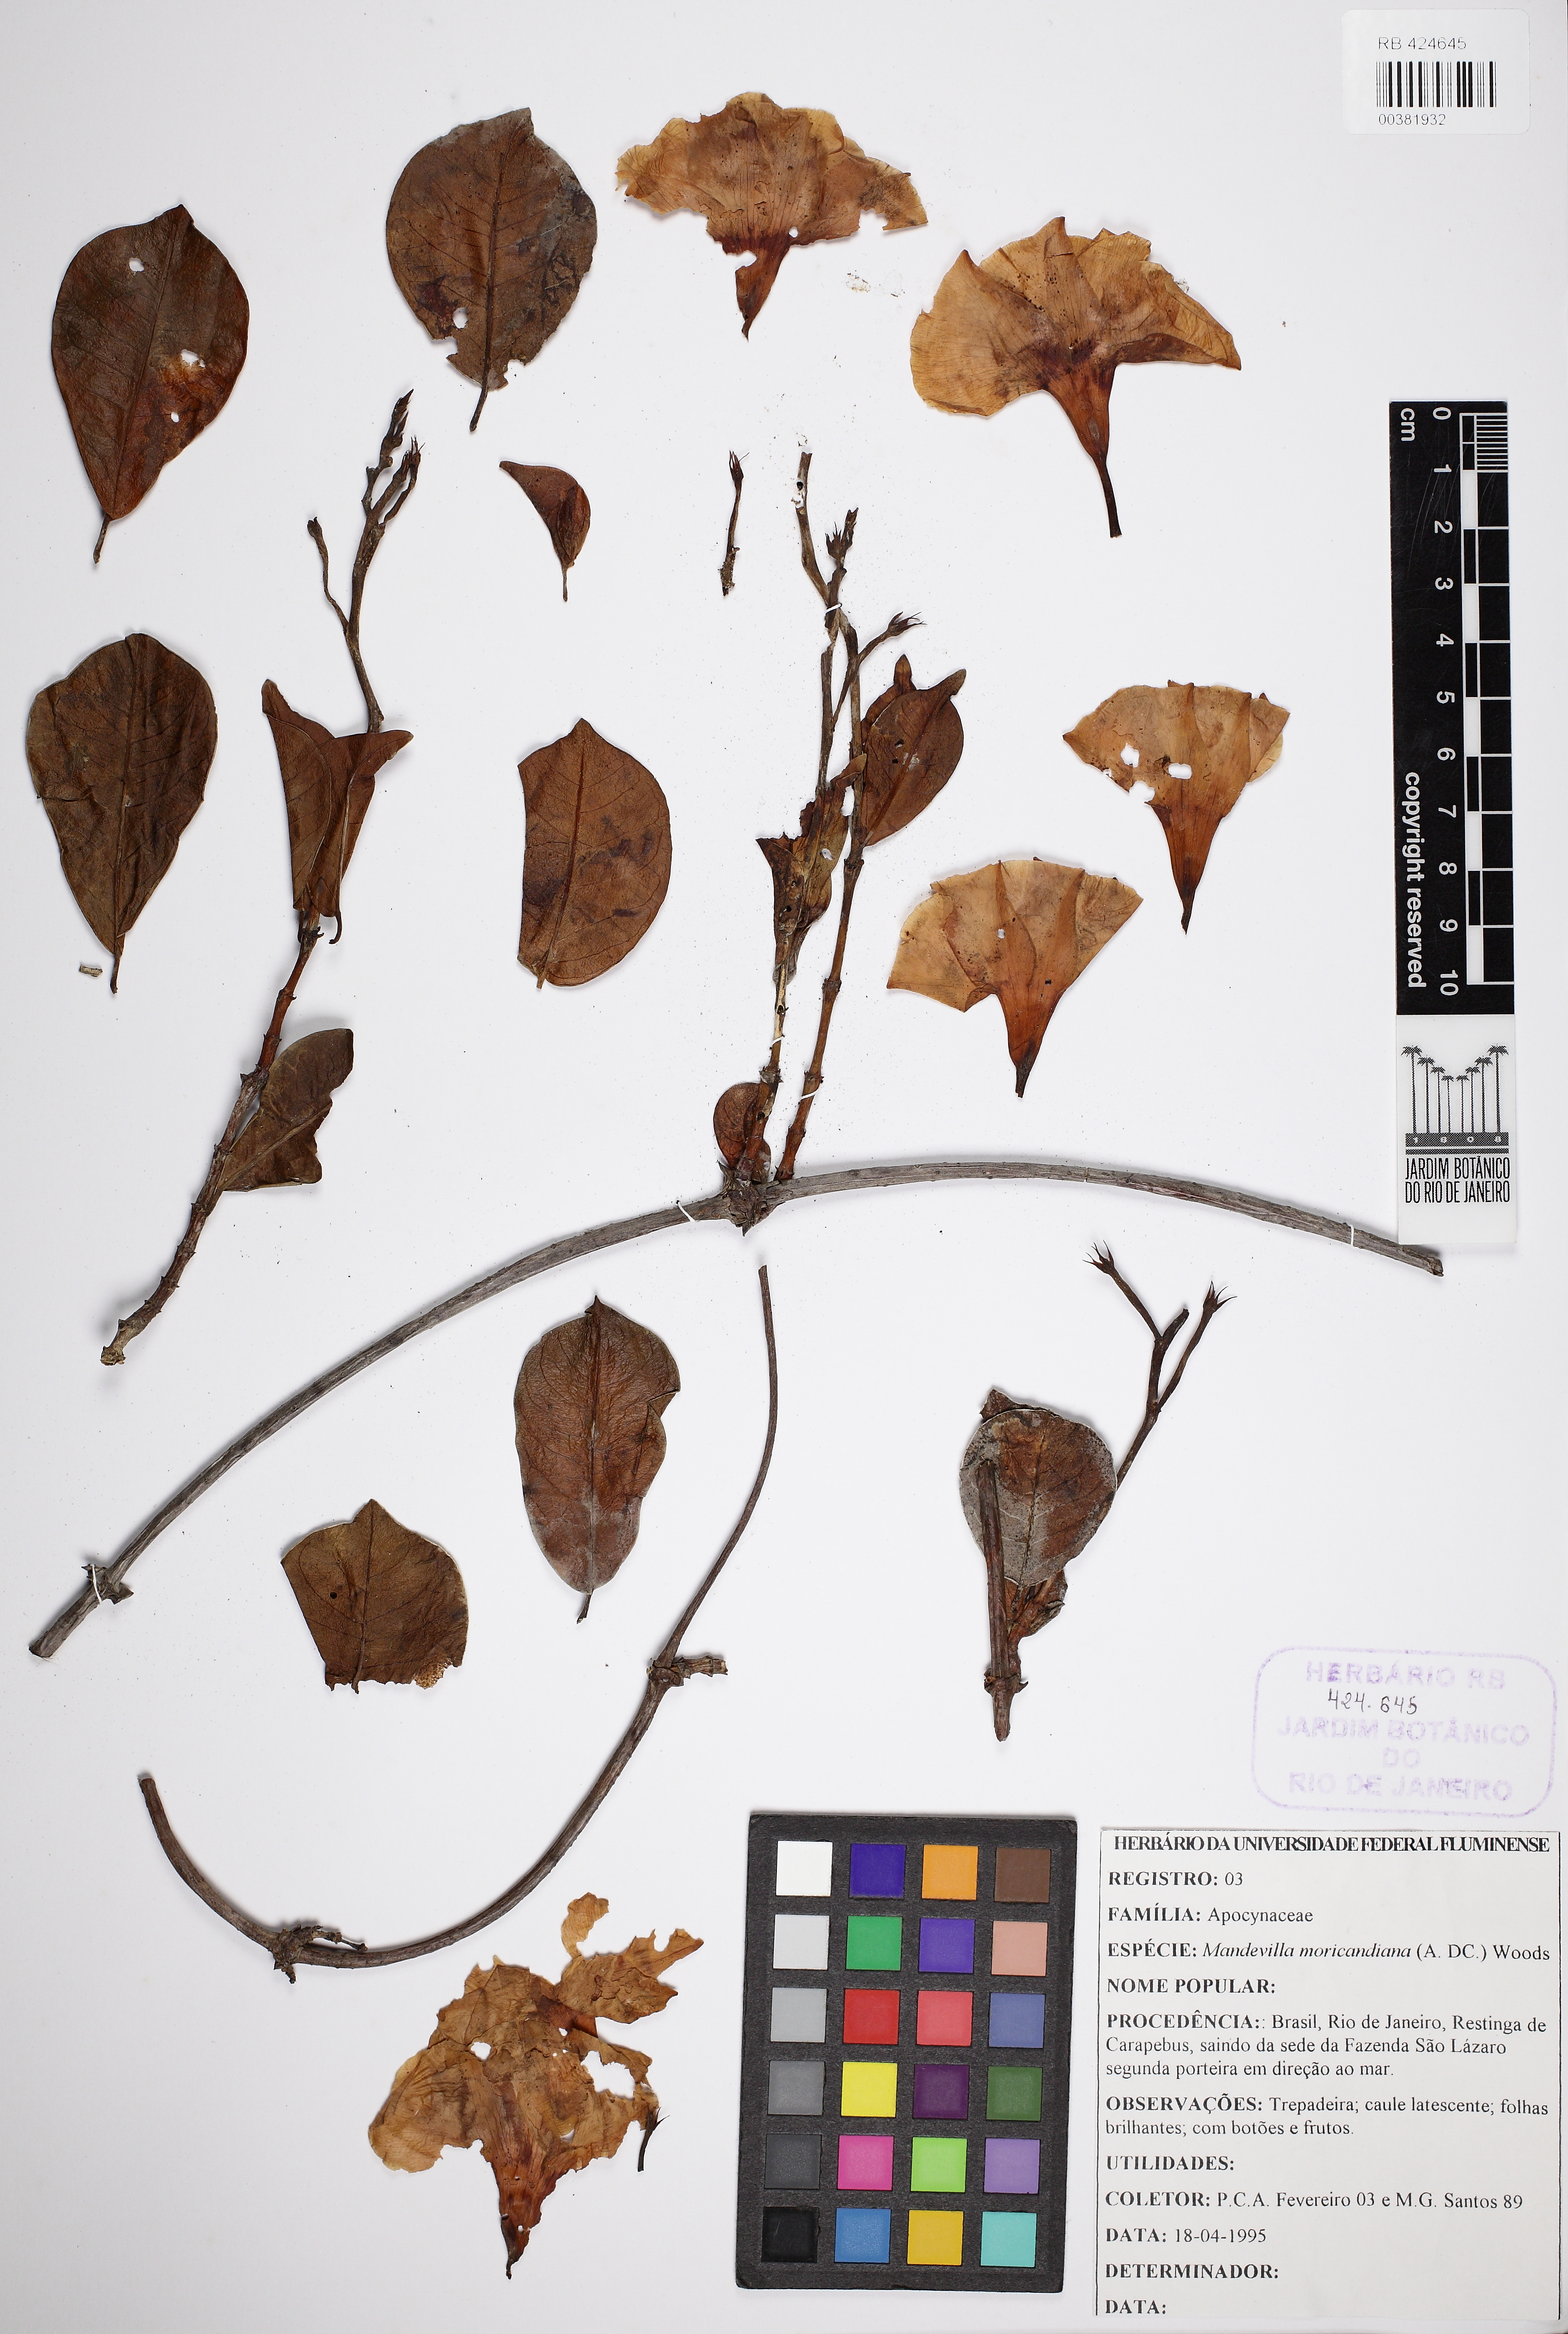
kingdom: Plantae
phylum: Tracheophyta
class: Magnoliopsida
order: Gentianales
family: Apocynaceae
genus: Mandevilla
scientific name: Mandevilla moricandiana
